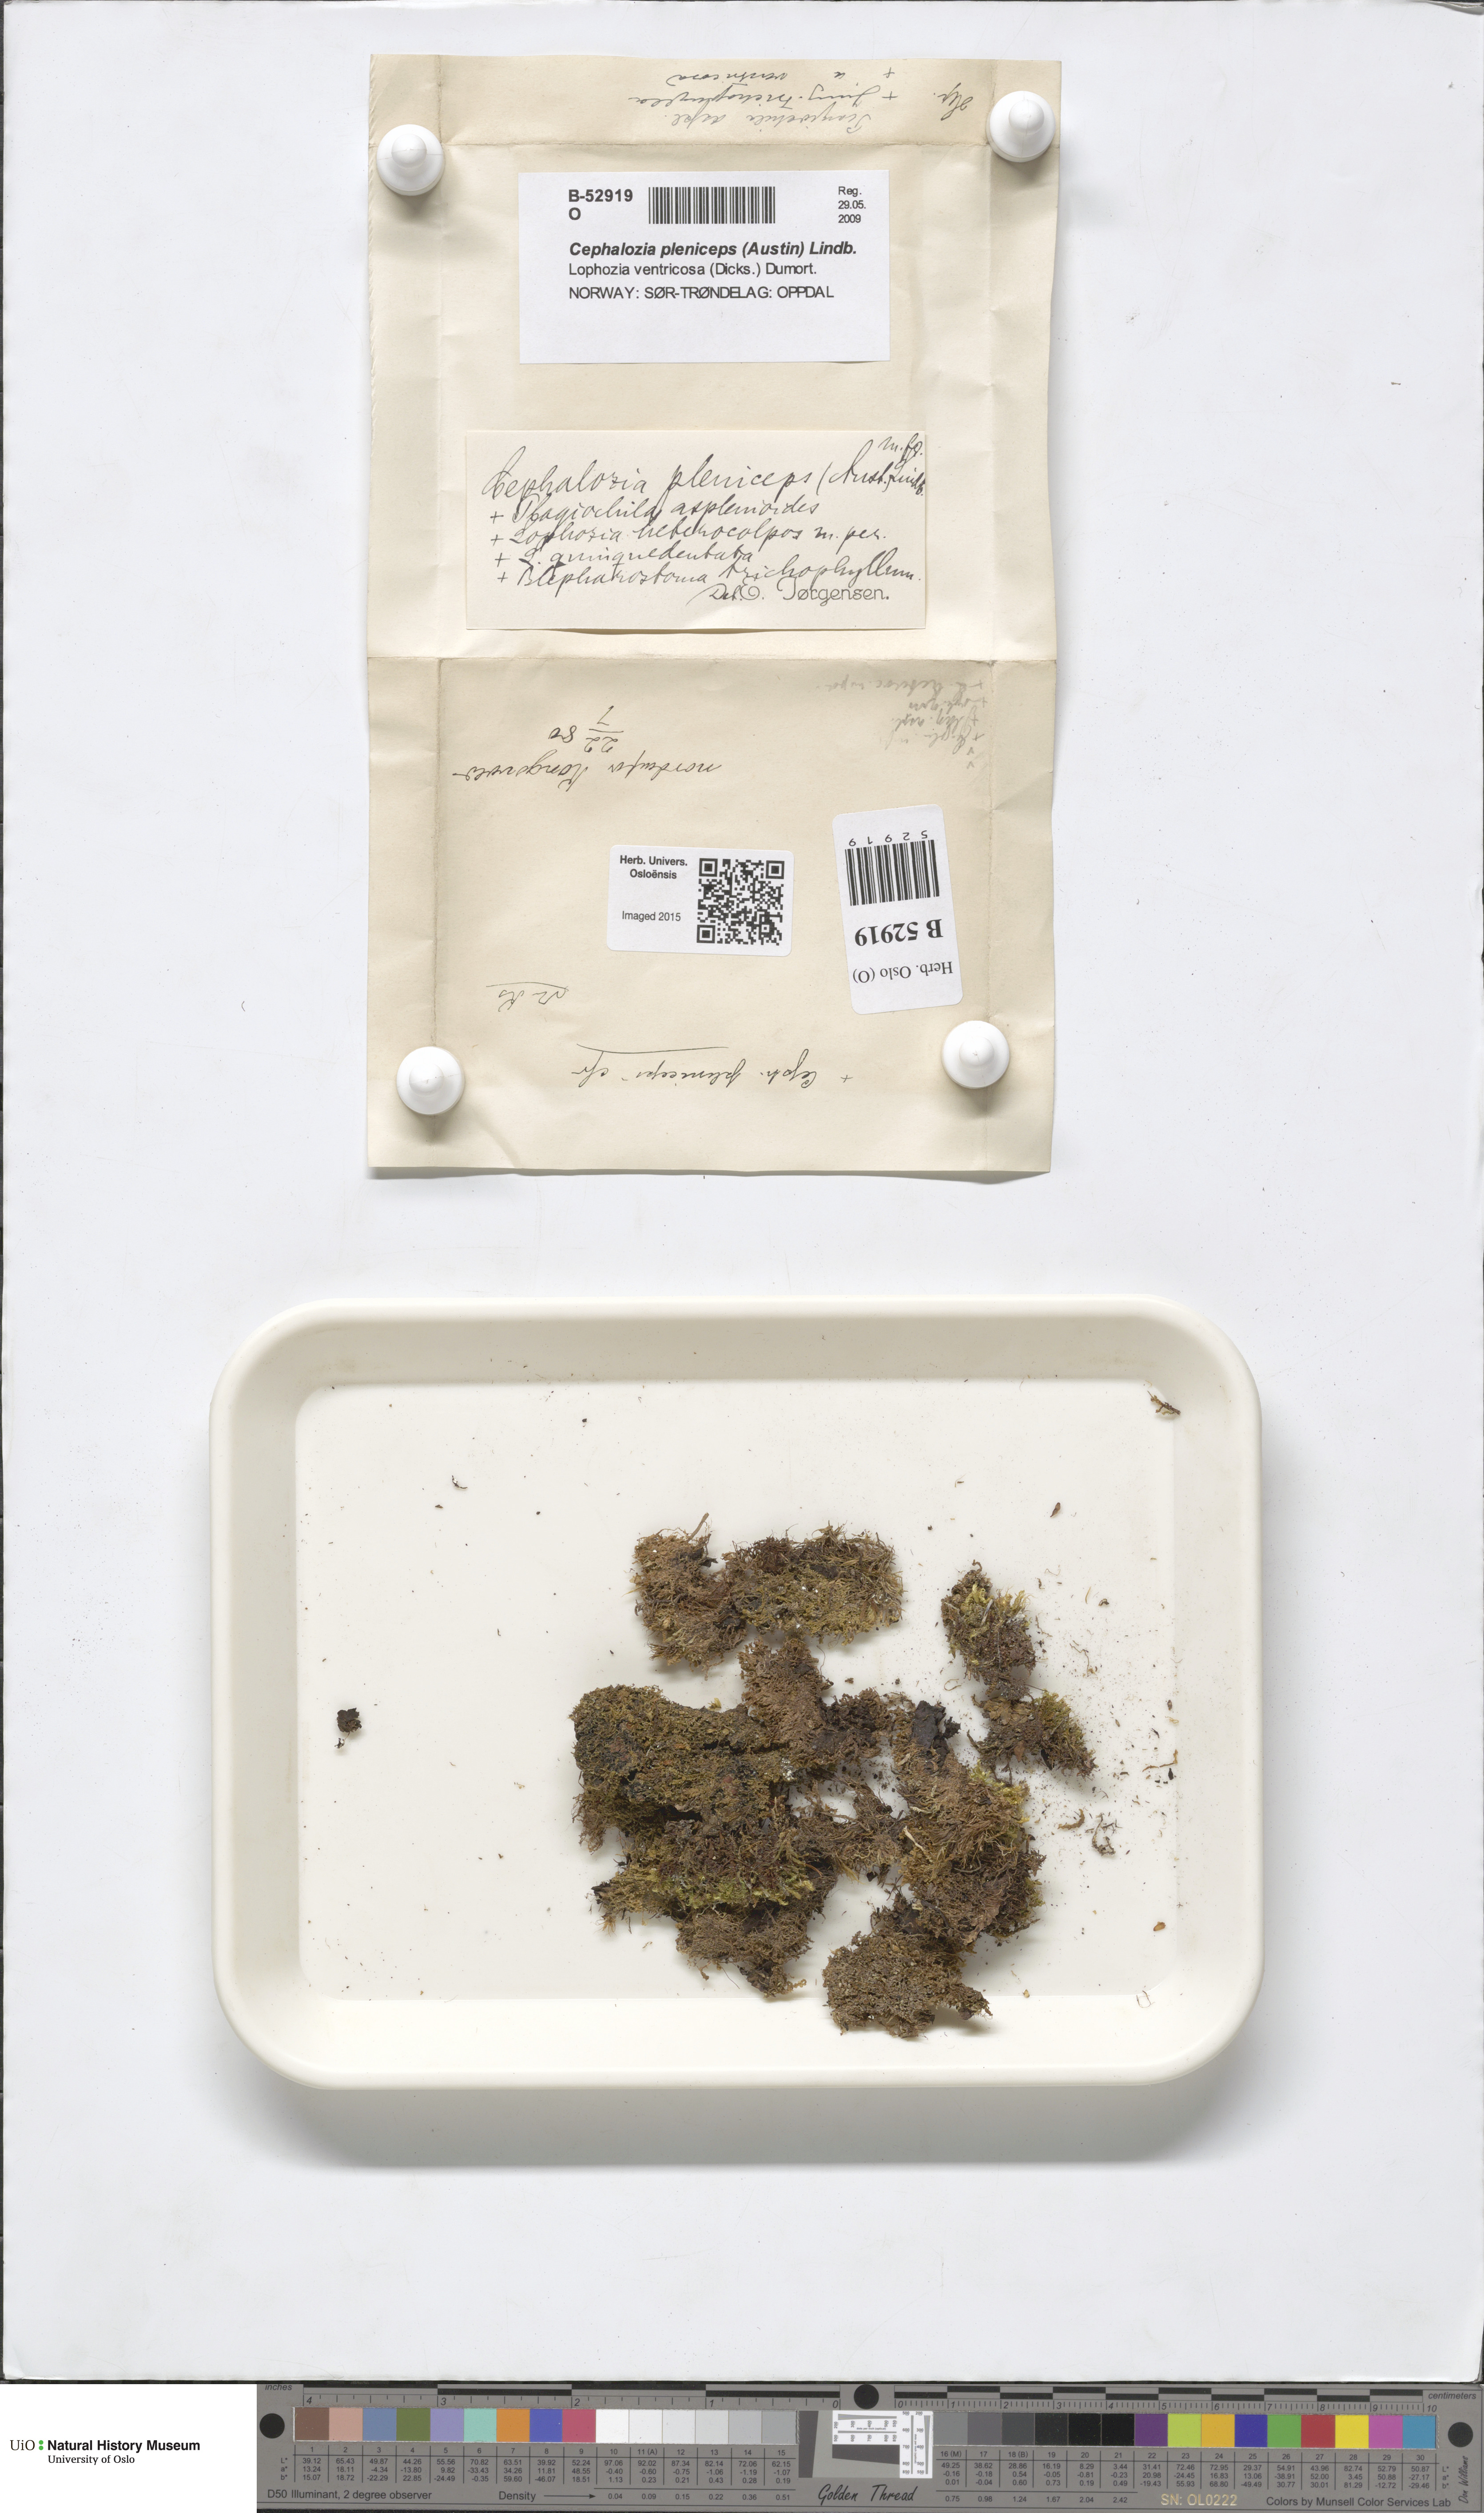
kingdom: Plantae
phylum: Marchantiophyta
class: Jungermanniopsida
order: Jungermanniales
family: Cephaloziaceae
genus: Fuscocephaloziopsis
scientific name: Fuscocephaloziopsis pleniceps
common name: Blunt pincerwort
